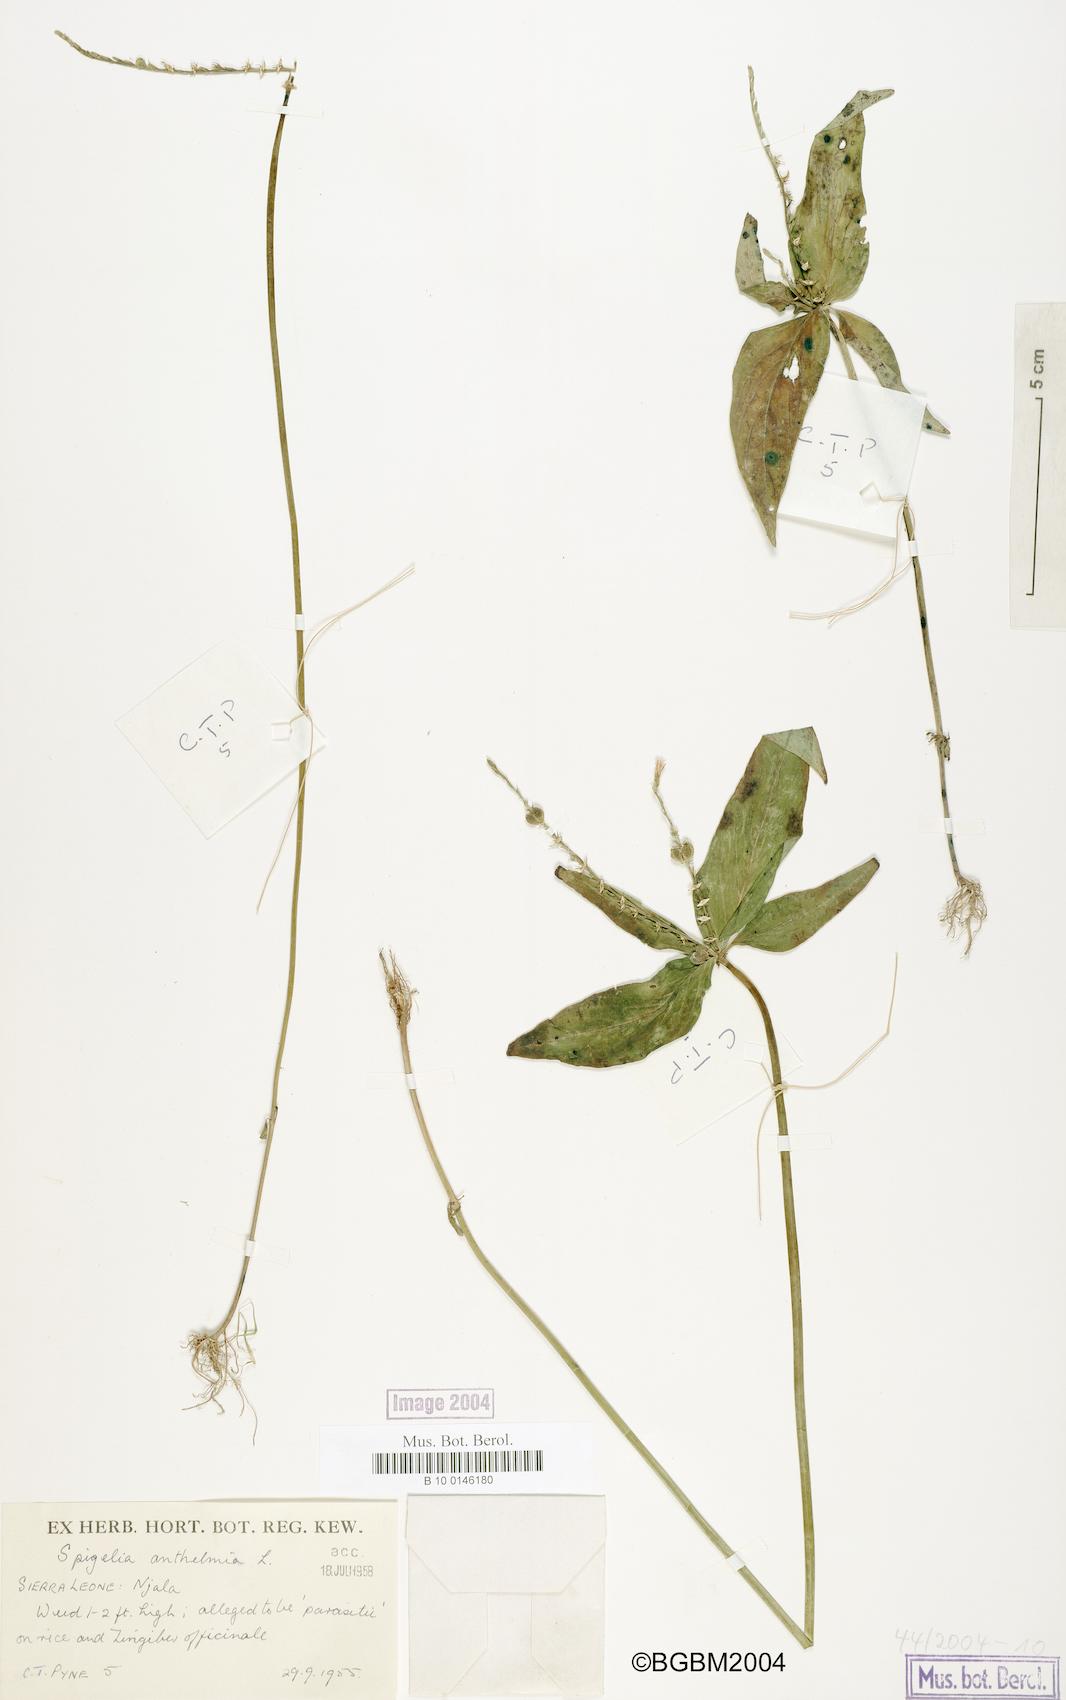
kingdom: Plantae
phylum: Tracheophyta
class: Magnoliopsida
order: Gentianales
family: Loganiaceae
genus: Spigelia
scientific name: Spigelia anthelmia
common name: West indian-pink
